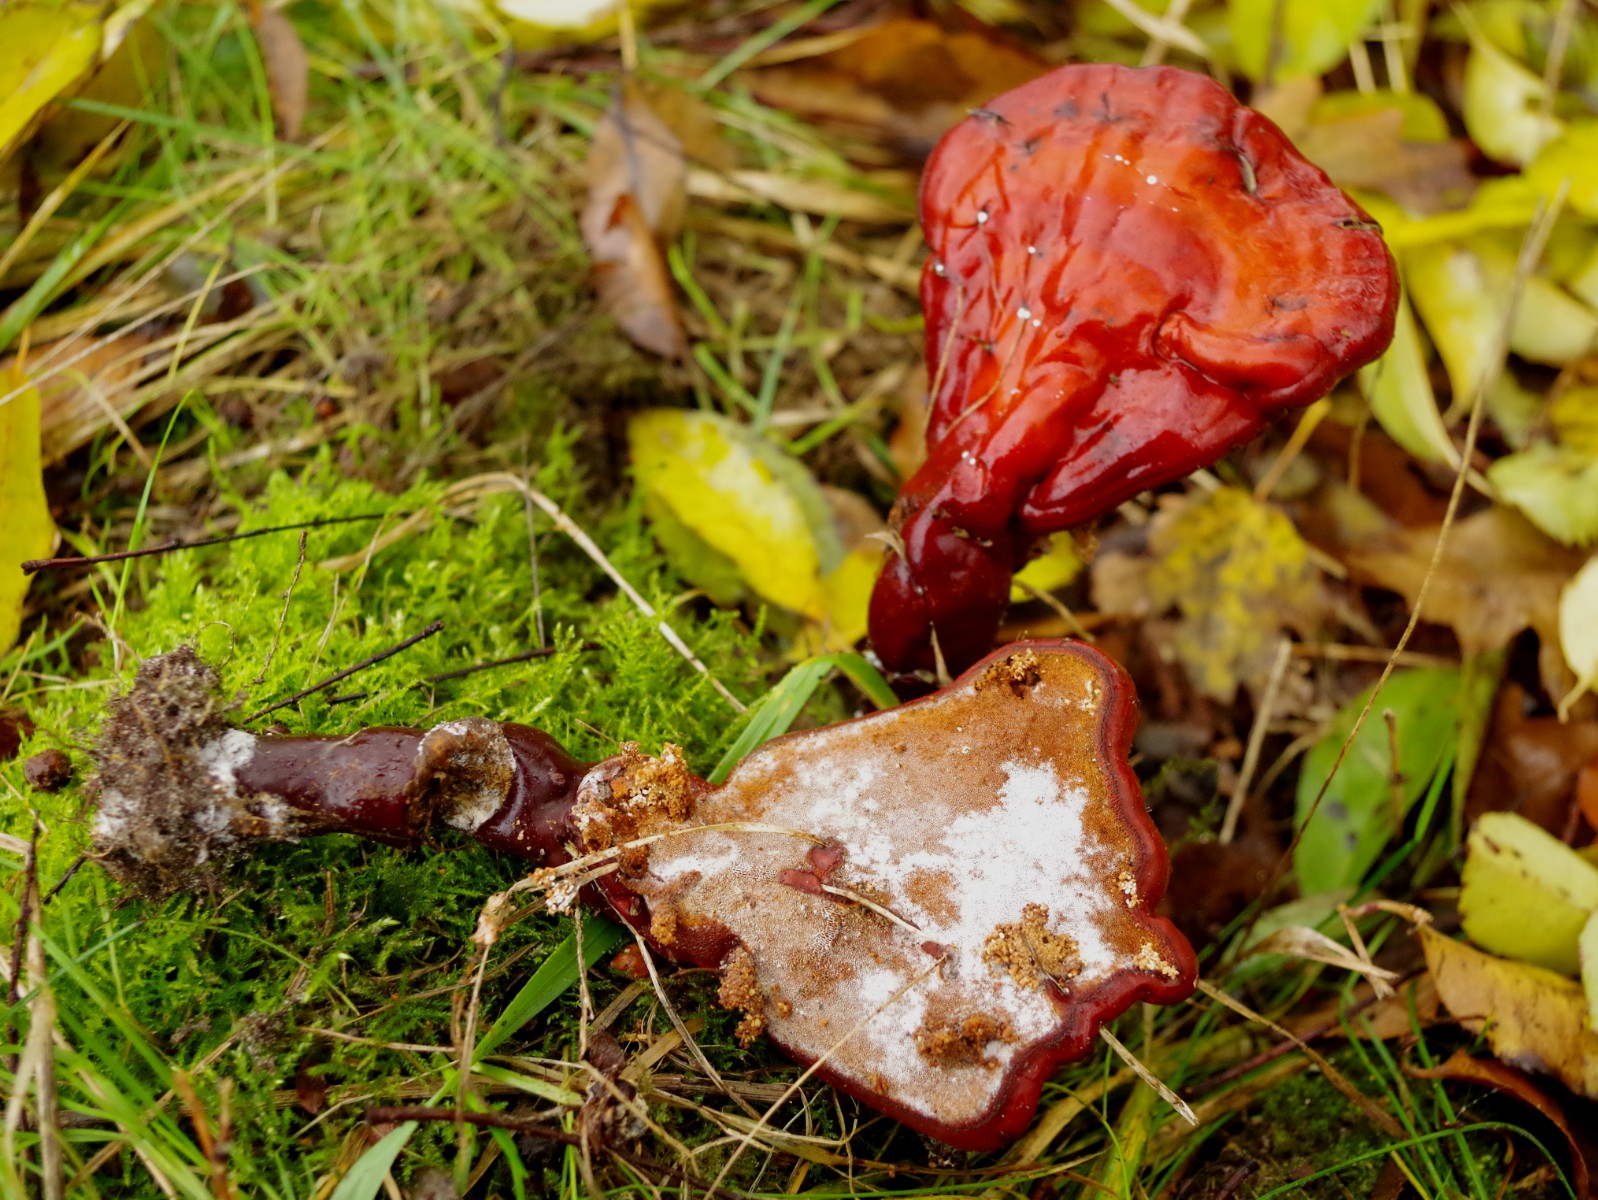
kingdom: Fungi
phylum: Basidiomycota
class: Agaricomycetes
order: Polyporales
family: Polyporaceae
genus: Ganoderma
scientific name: Ganoderma lucidum
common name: skinnende lakporesvamp
